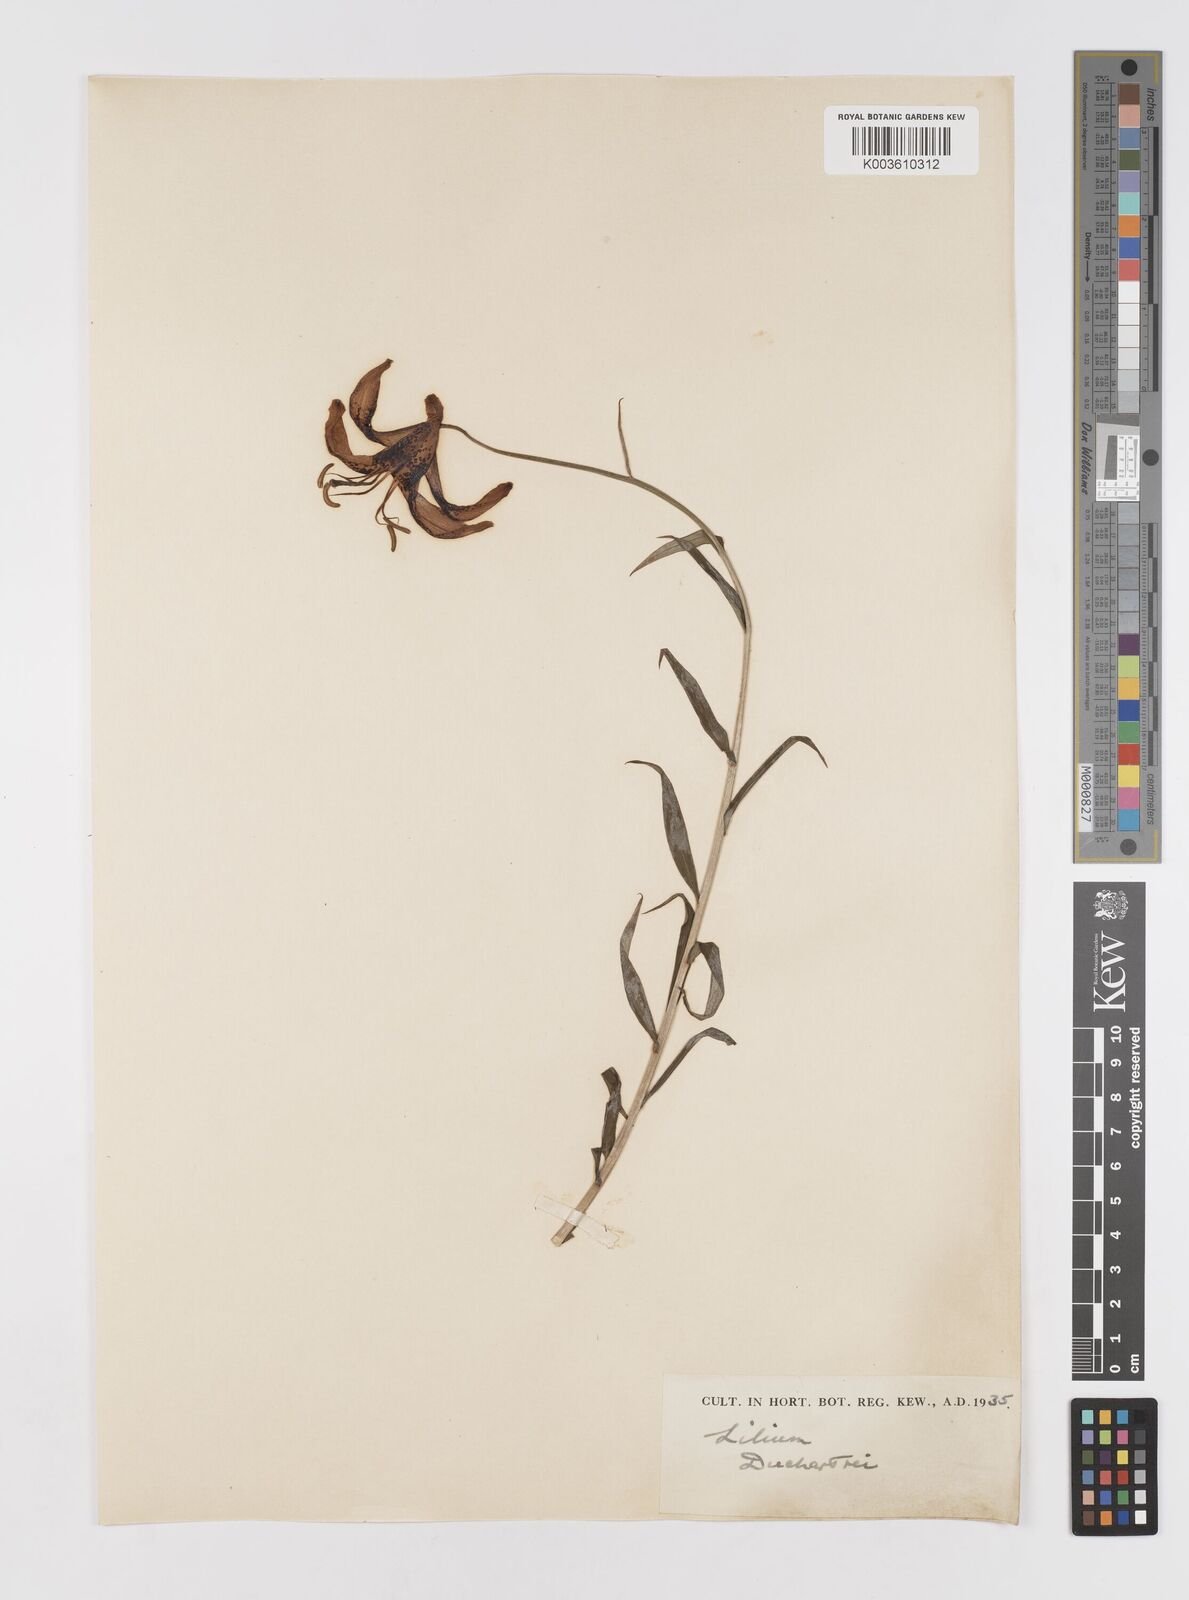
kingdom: Plantae
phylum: Tracheophyta
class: Liliopsida
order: Liliales
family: Liliaceae
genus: Lilium
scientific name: Lilium duchartrei
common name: Duchartre lily
